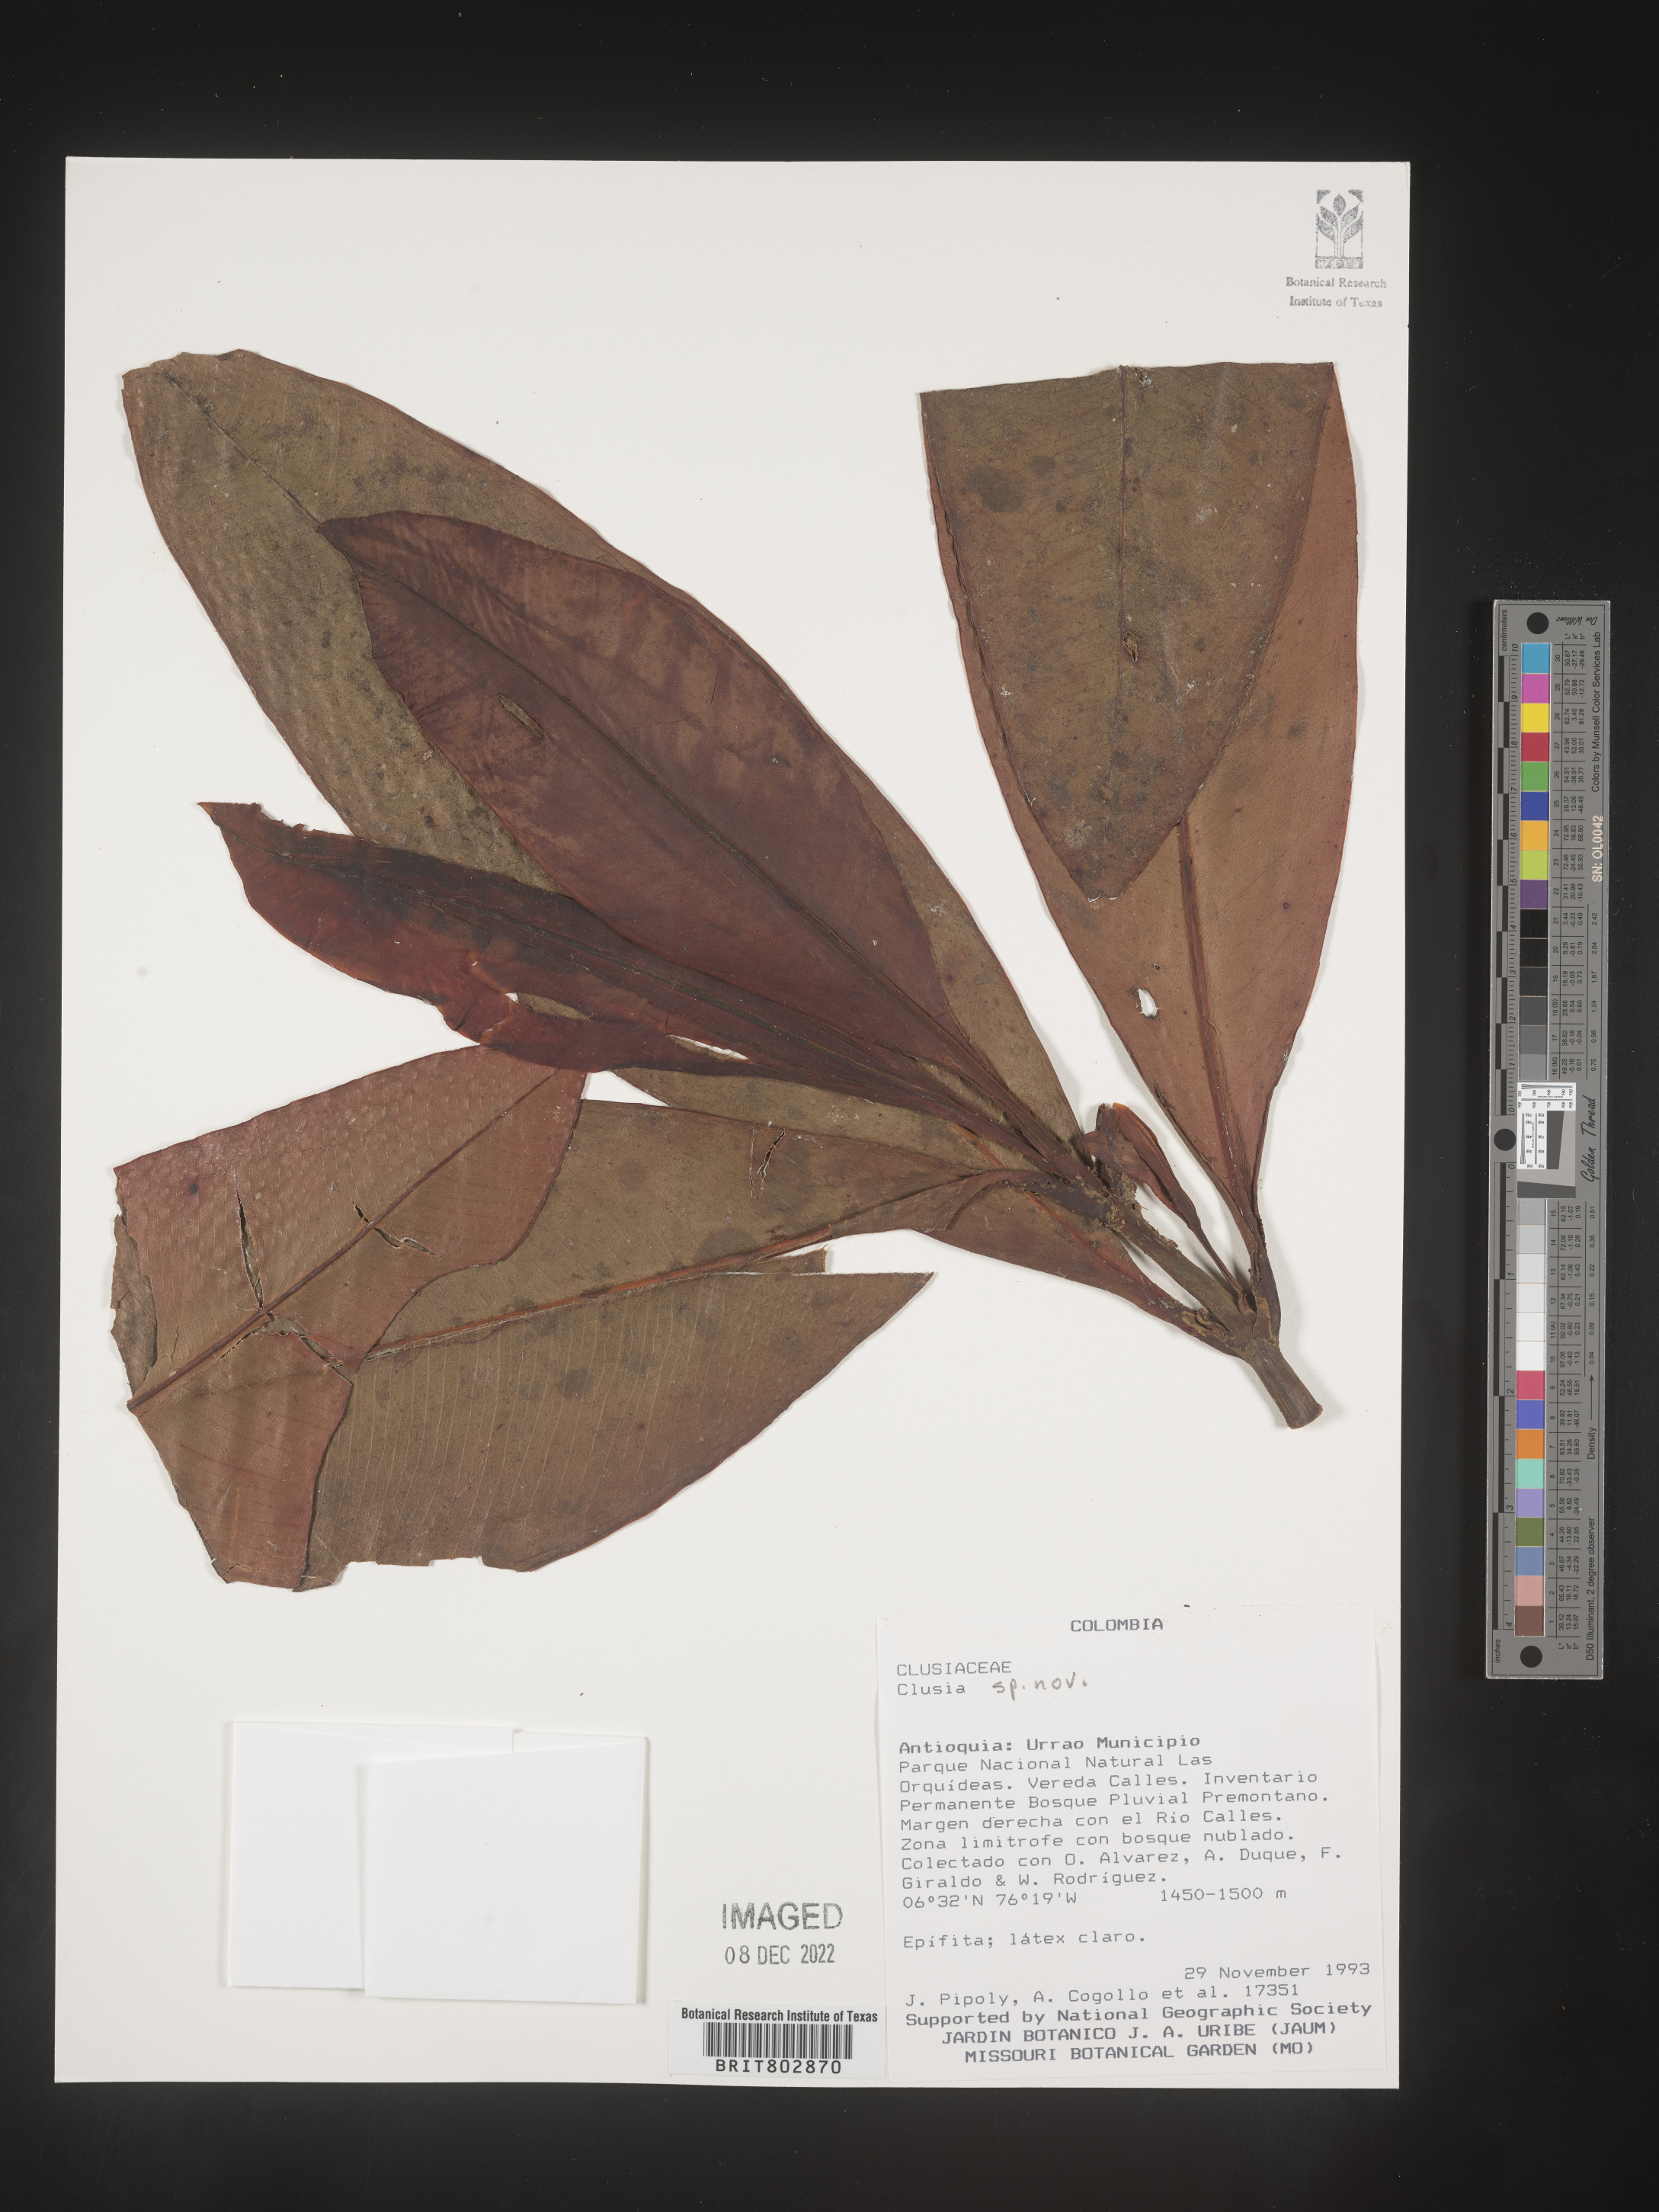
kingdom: Plantae
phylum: Tracheophyta
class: Magnoliopsida
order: Malpighiales
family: Clusiaceae
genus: Clusia
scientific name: Clusia
